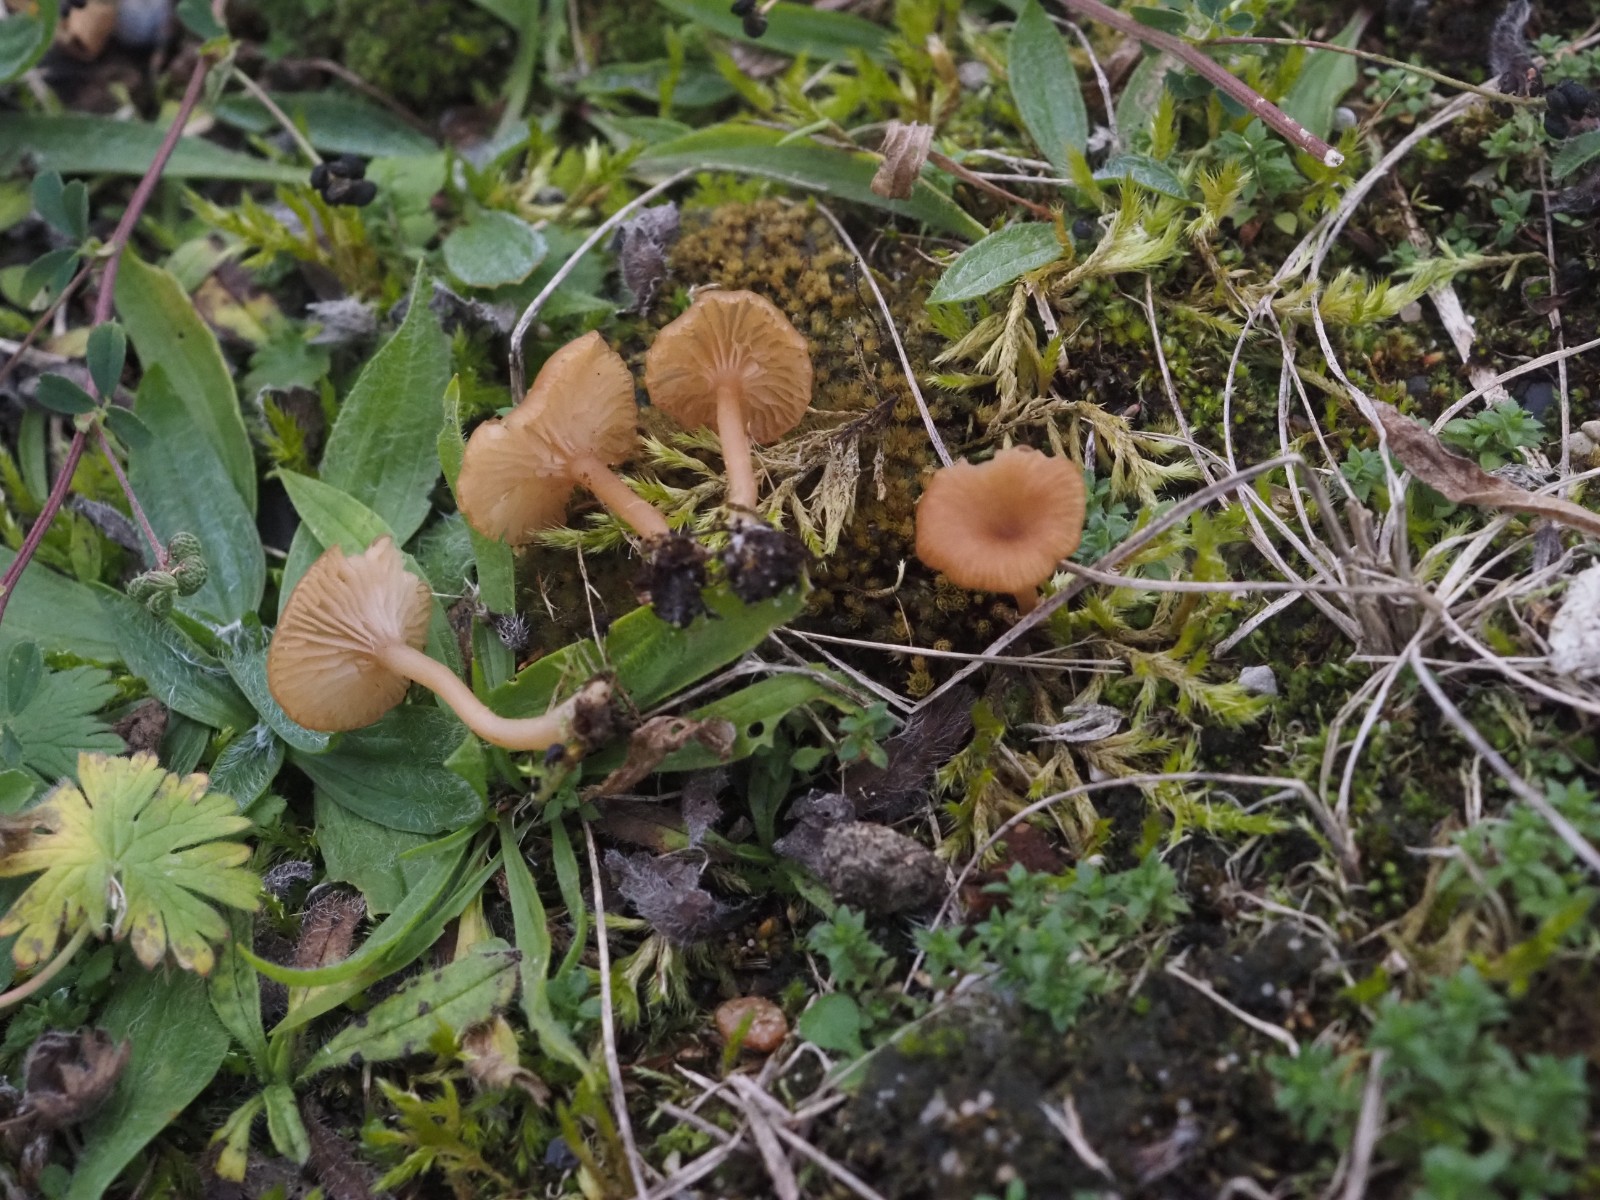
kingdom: Fungi
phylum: Basidiomycota
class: Agaricomycetes
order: Agaricales
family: Tricholomataceae
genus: Omphalina
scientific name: Omphalina pyxidata
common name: rødbrun navlehat
